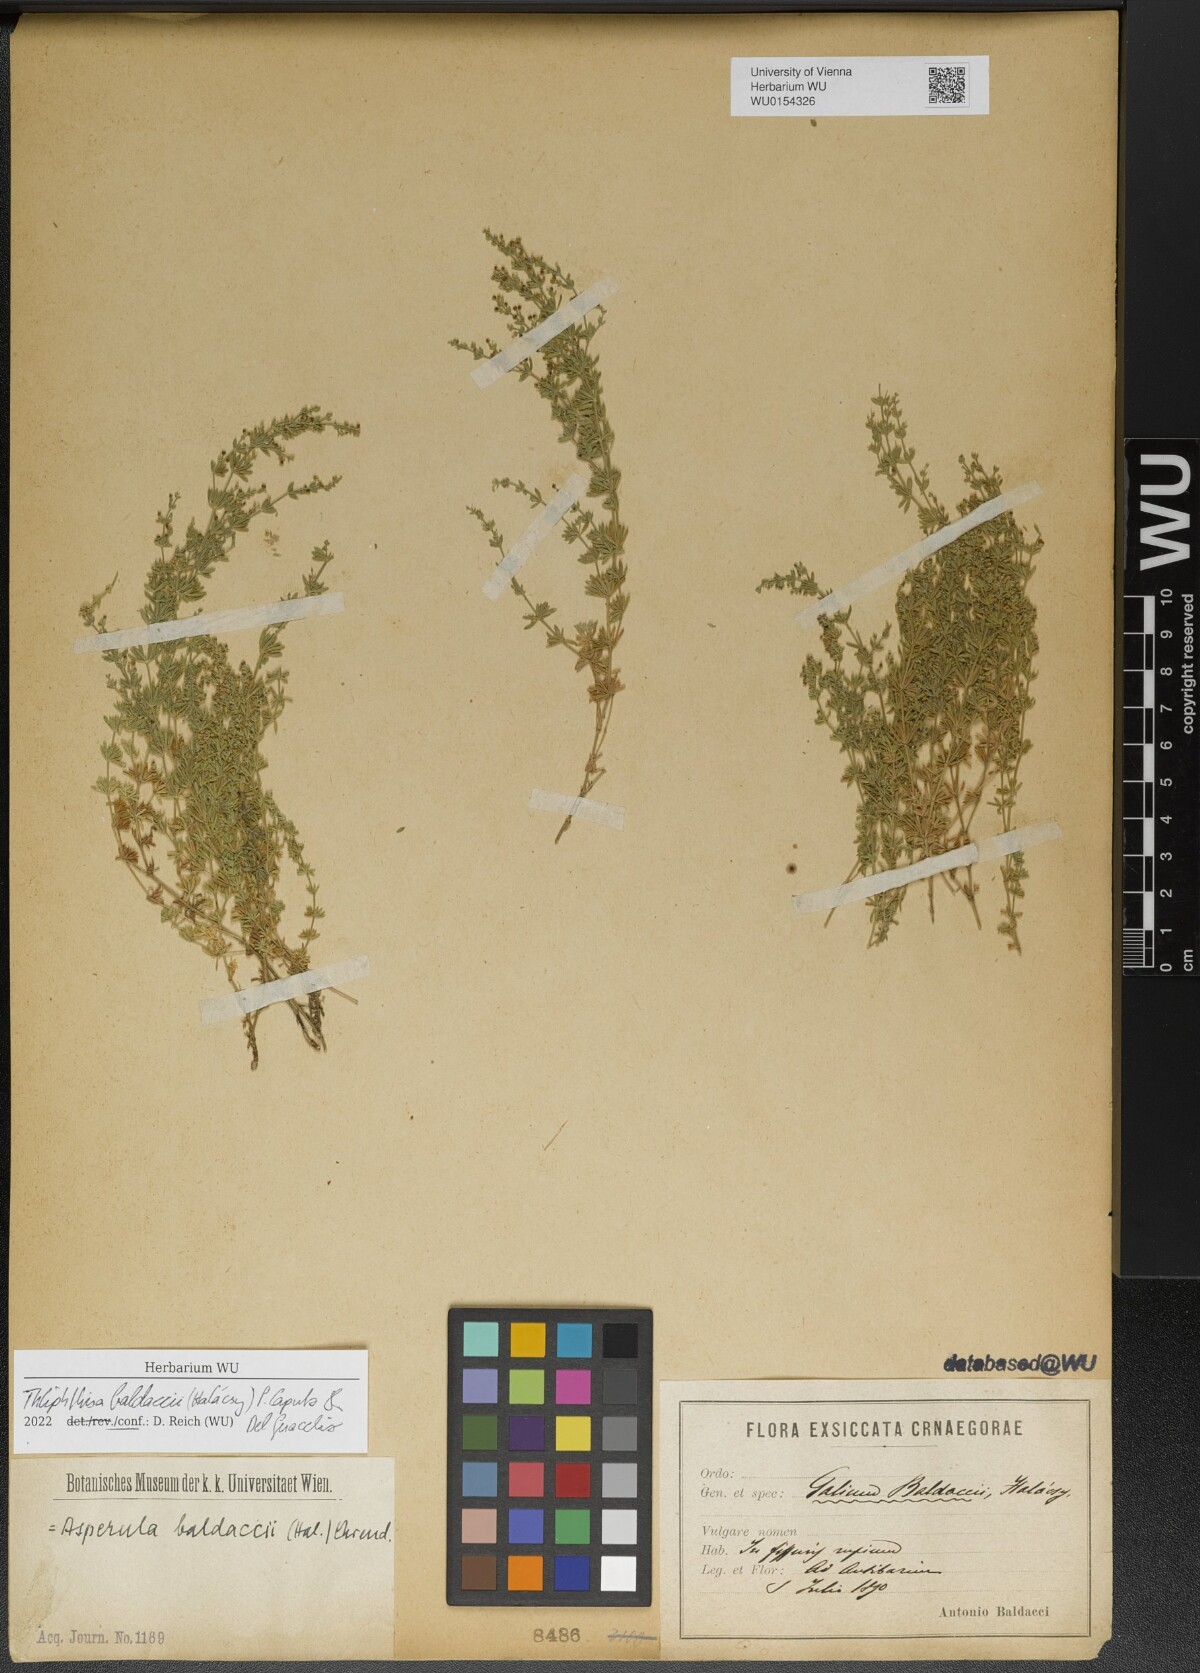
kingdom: Plantae
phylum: Tracheophyta
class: Magnoliopsida
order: Gentianales
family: Rubiaceae
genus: Thliphthisa
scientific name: Thliphthisa baldaccii
